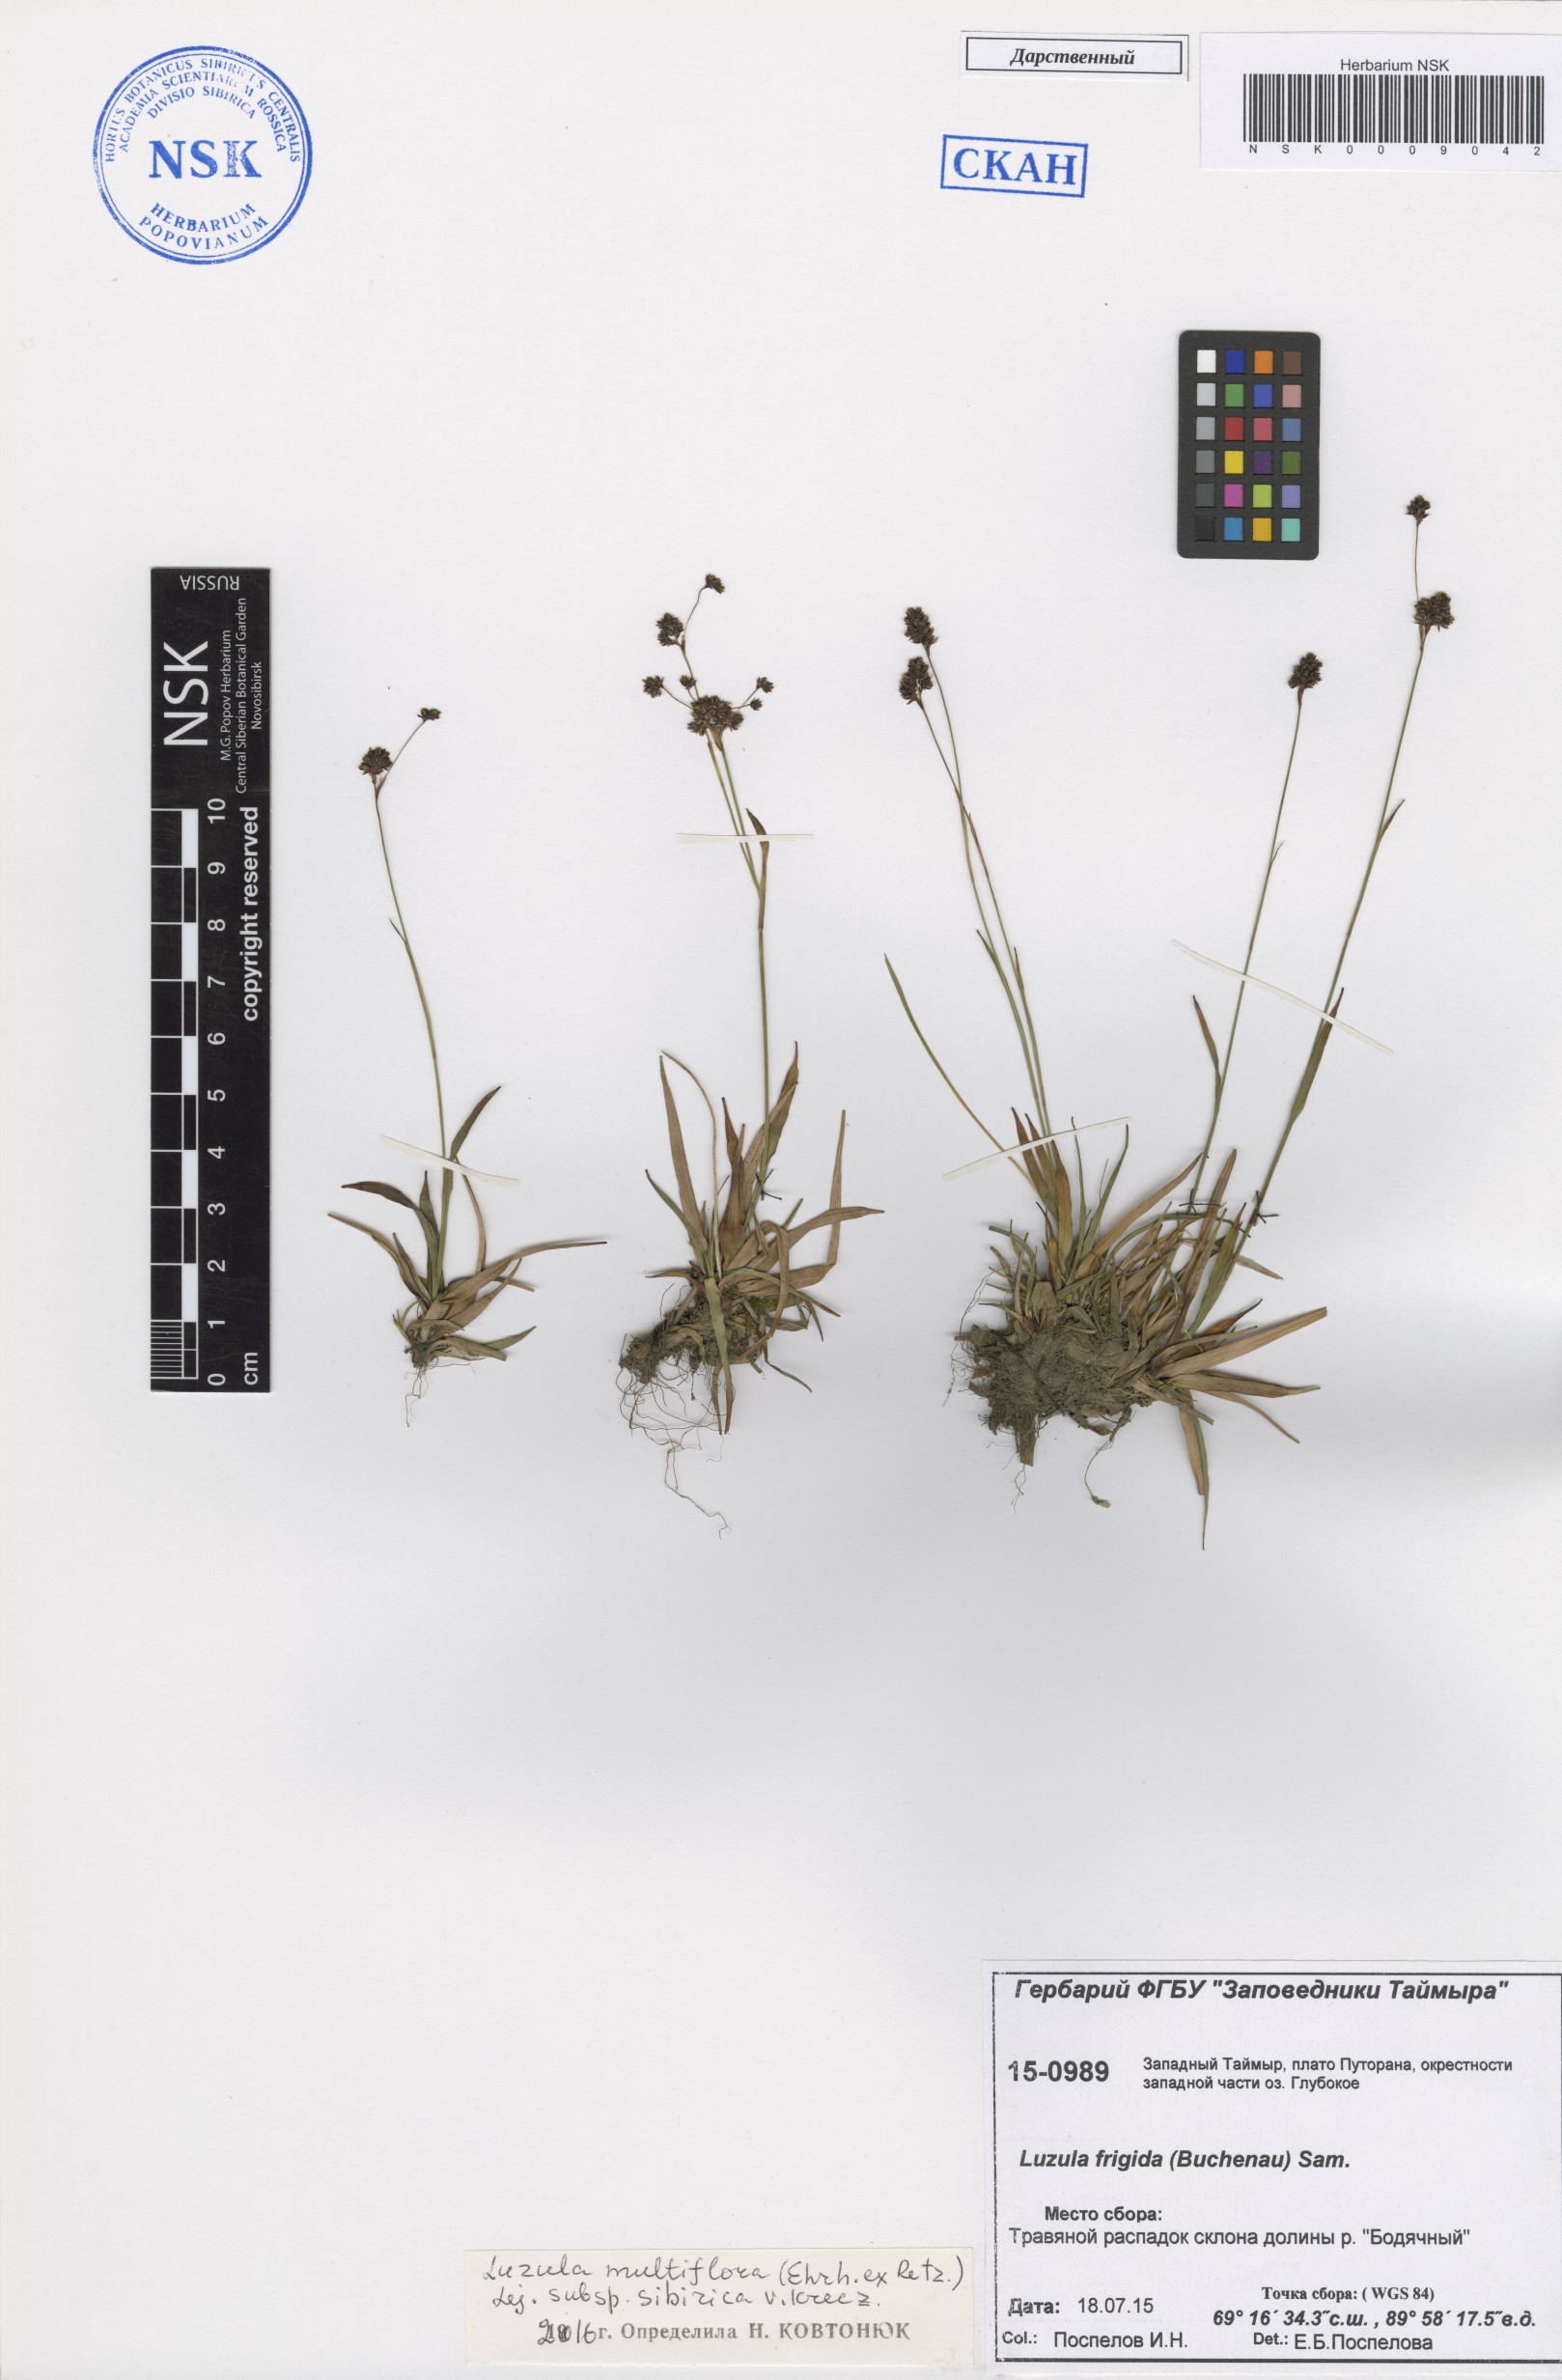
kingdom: Plantae
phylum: Tracheophyta
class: Liliopsida
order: Poales
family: Juncaceae
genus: Luzula
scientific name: Luzula multiflora
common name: Heath wood-rush
